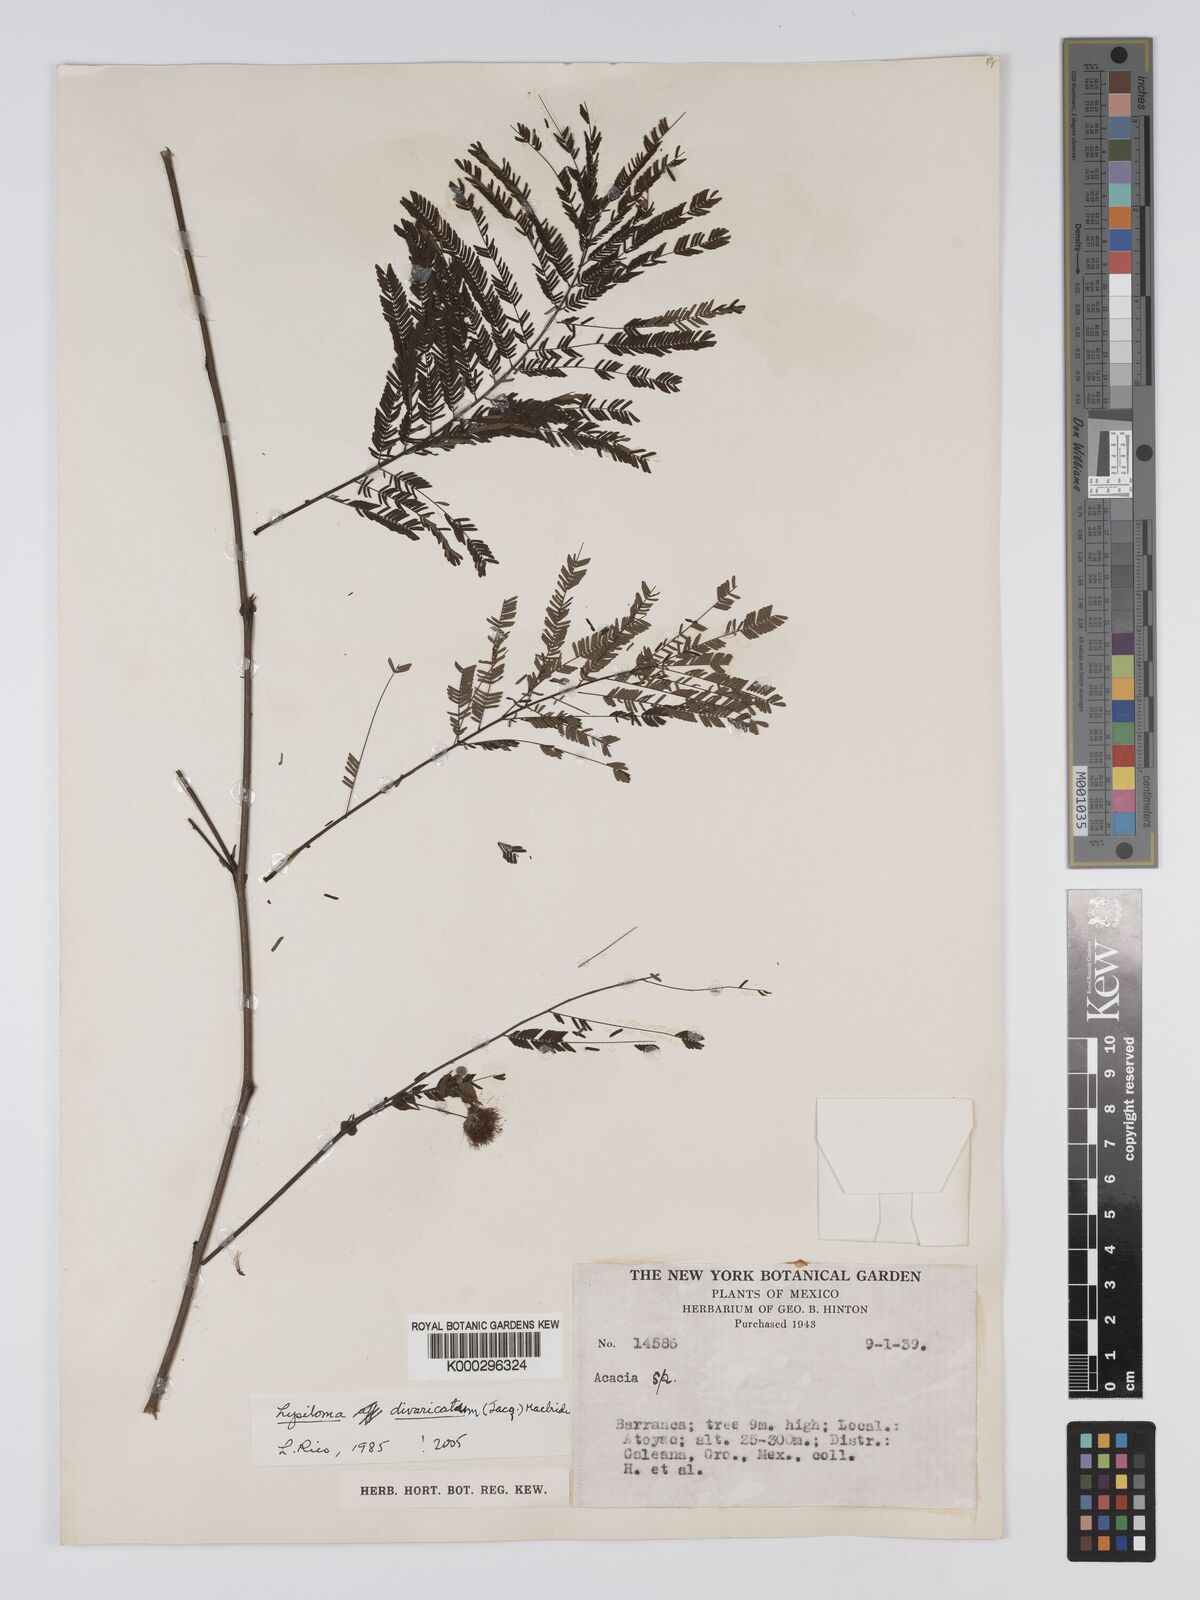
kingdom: Plantae
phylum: Tracheophyta
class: Magnoliopsida
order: Fabales
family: Fabaceae
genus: Lysiloma
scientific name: Lysiloma divaricatum
